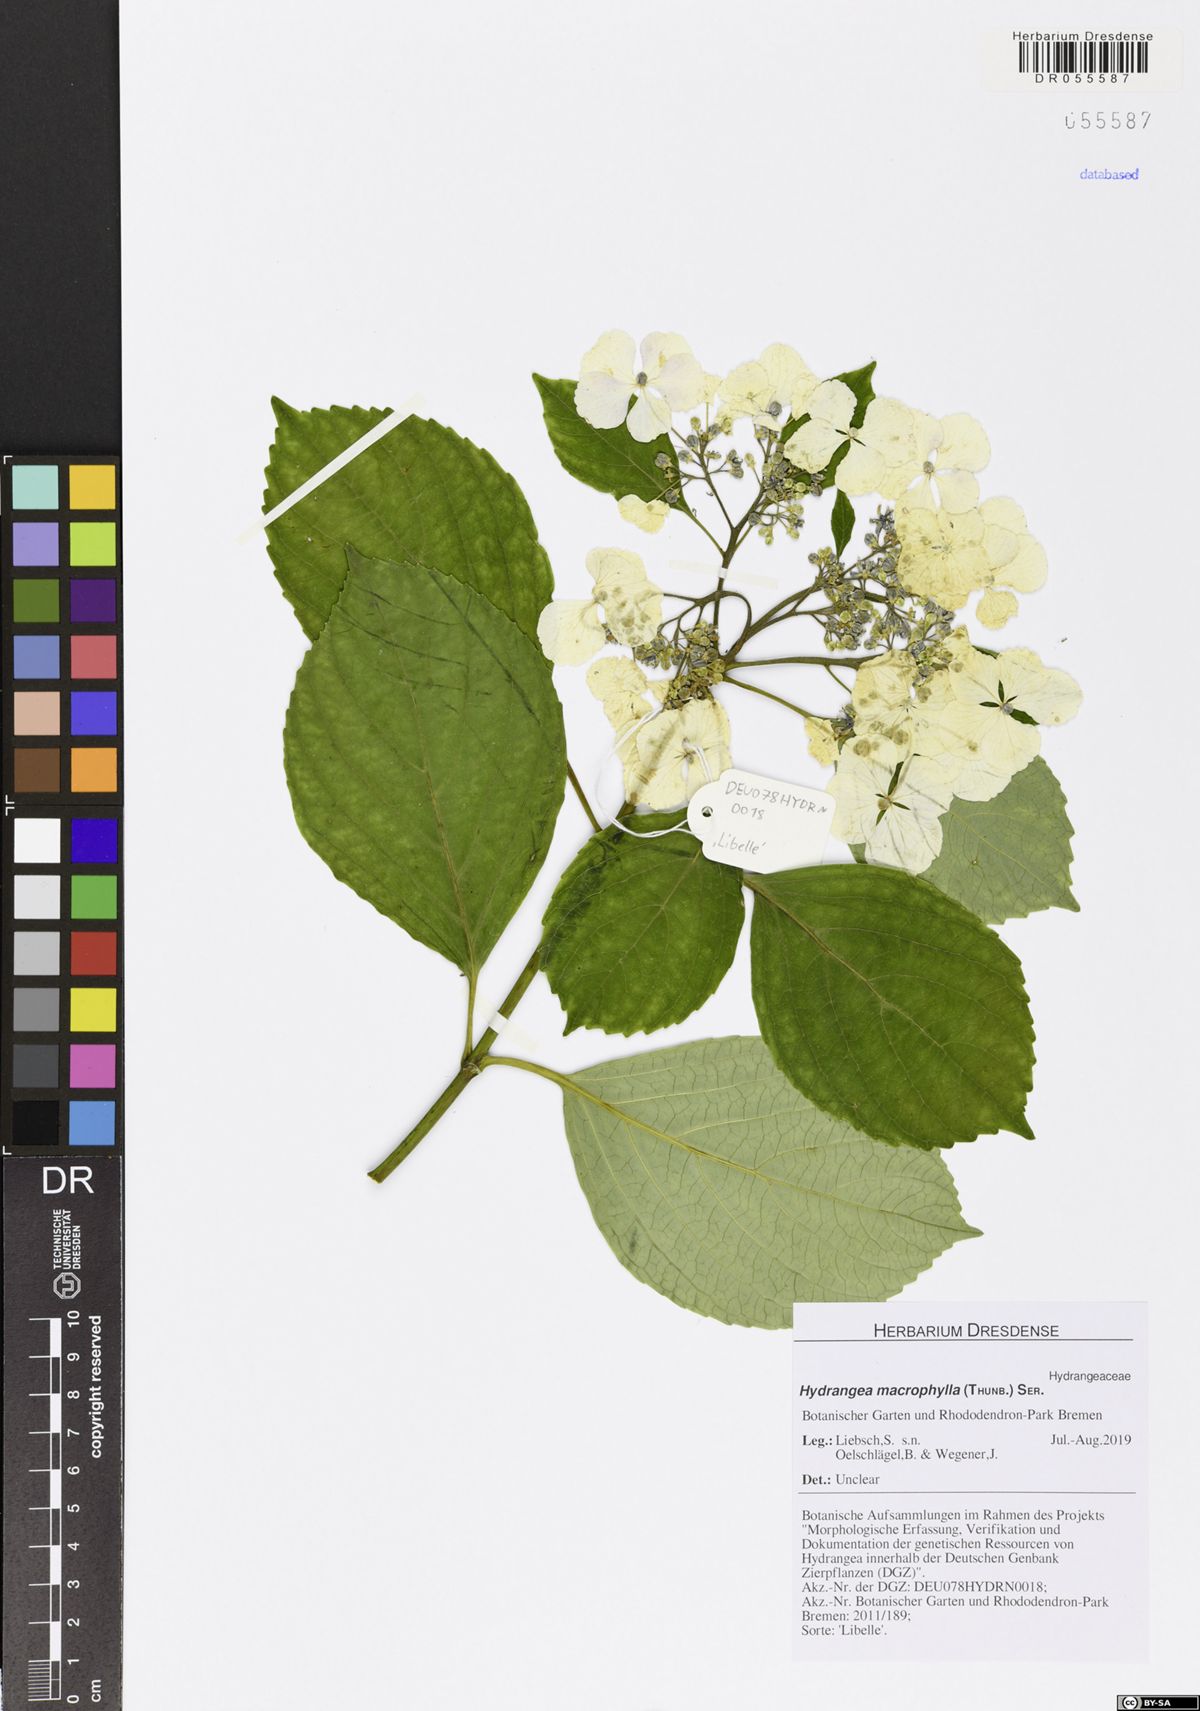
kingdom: Plantae
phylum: Tracheophyta
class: Magnoliopsida
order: Cornales
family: Hydrangeaceae
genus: Hydrangea
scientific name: Hydrangea macrophylla
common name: Hydrangea
